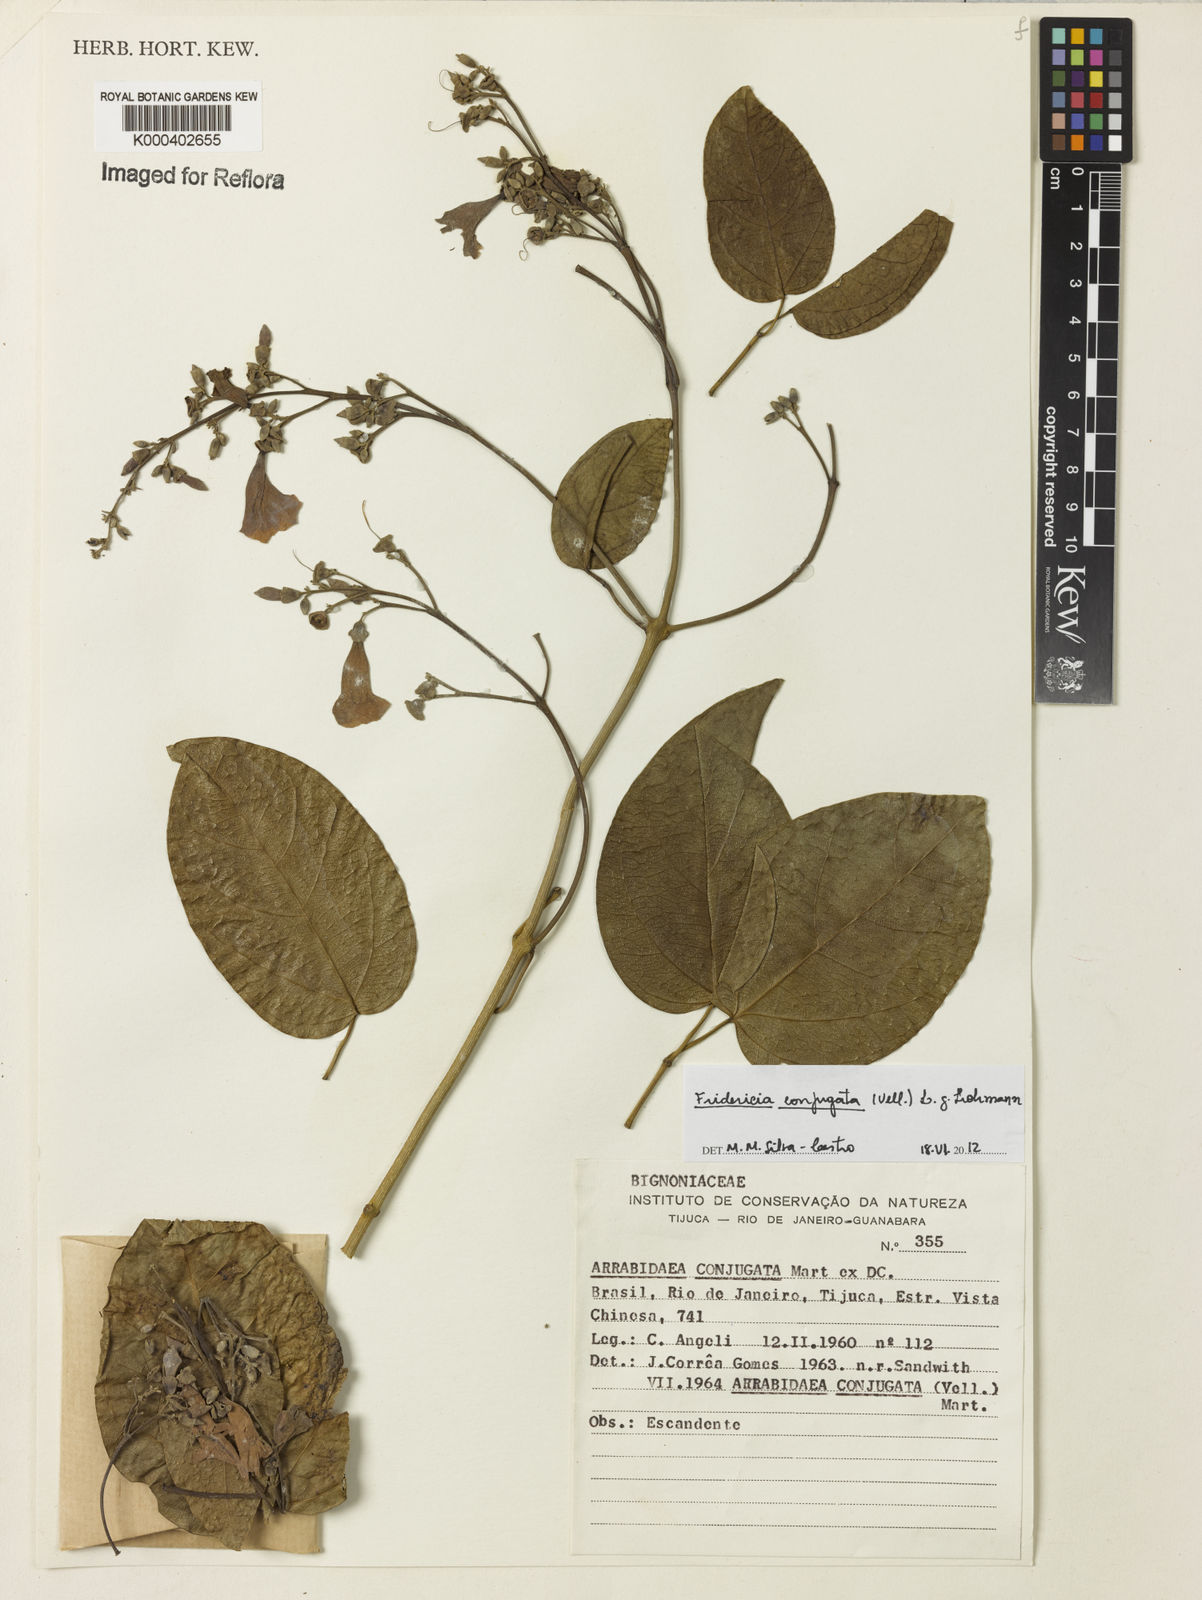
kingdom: Plantae
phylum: Tracheophyta
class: Magnoliopsida
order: Lamiales
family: Bignoniaceae
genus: Fridericia
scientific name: Fridericia conjugata
